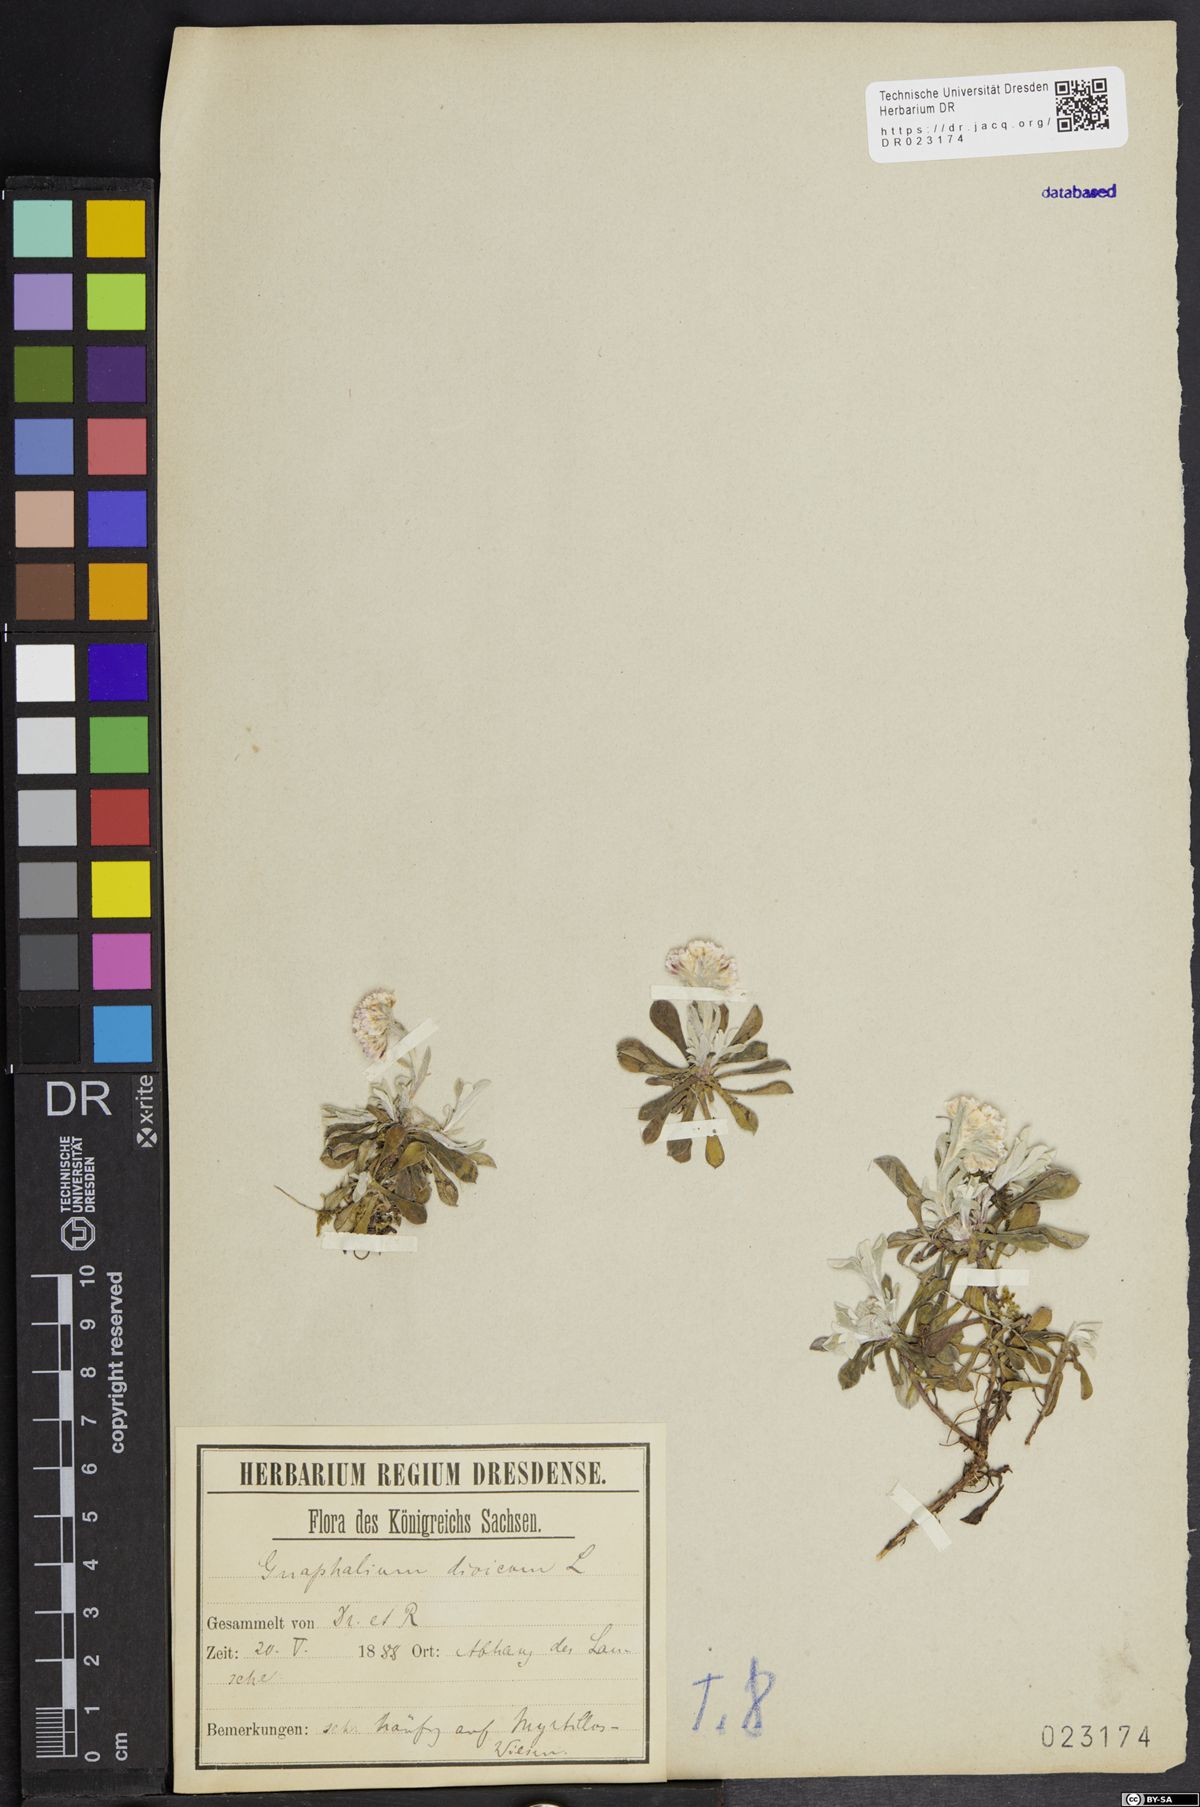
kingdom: Plantae
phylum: Tracheophyta
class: Magnoliopsida
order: Asterales
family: Asteraceae
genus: Antennaria
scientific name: Antennaria dioica
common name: Mountain everlasting
